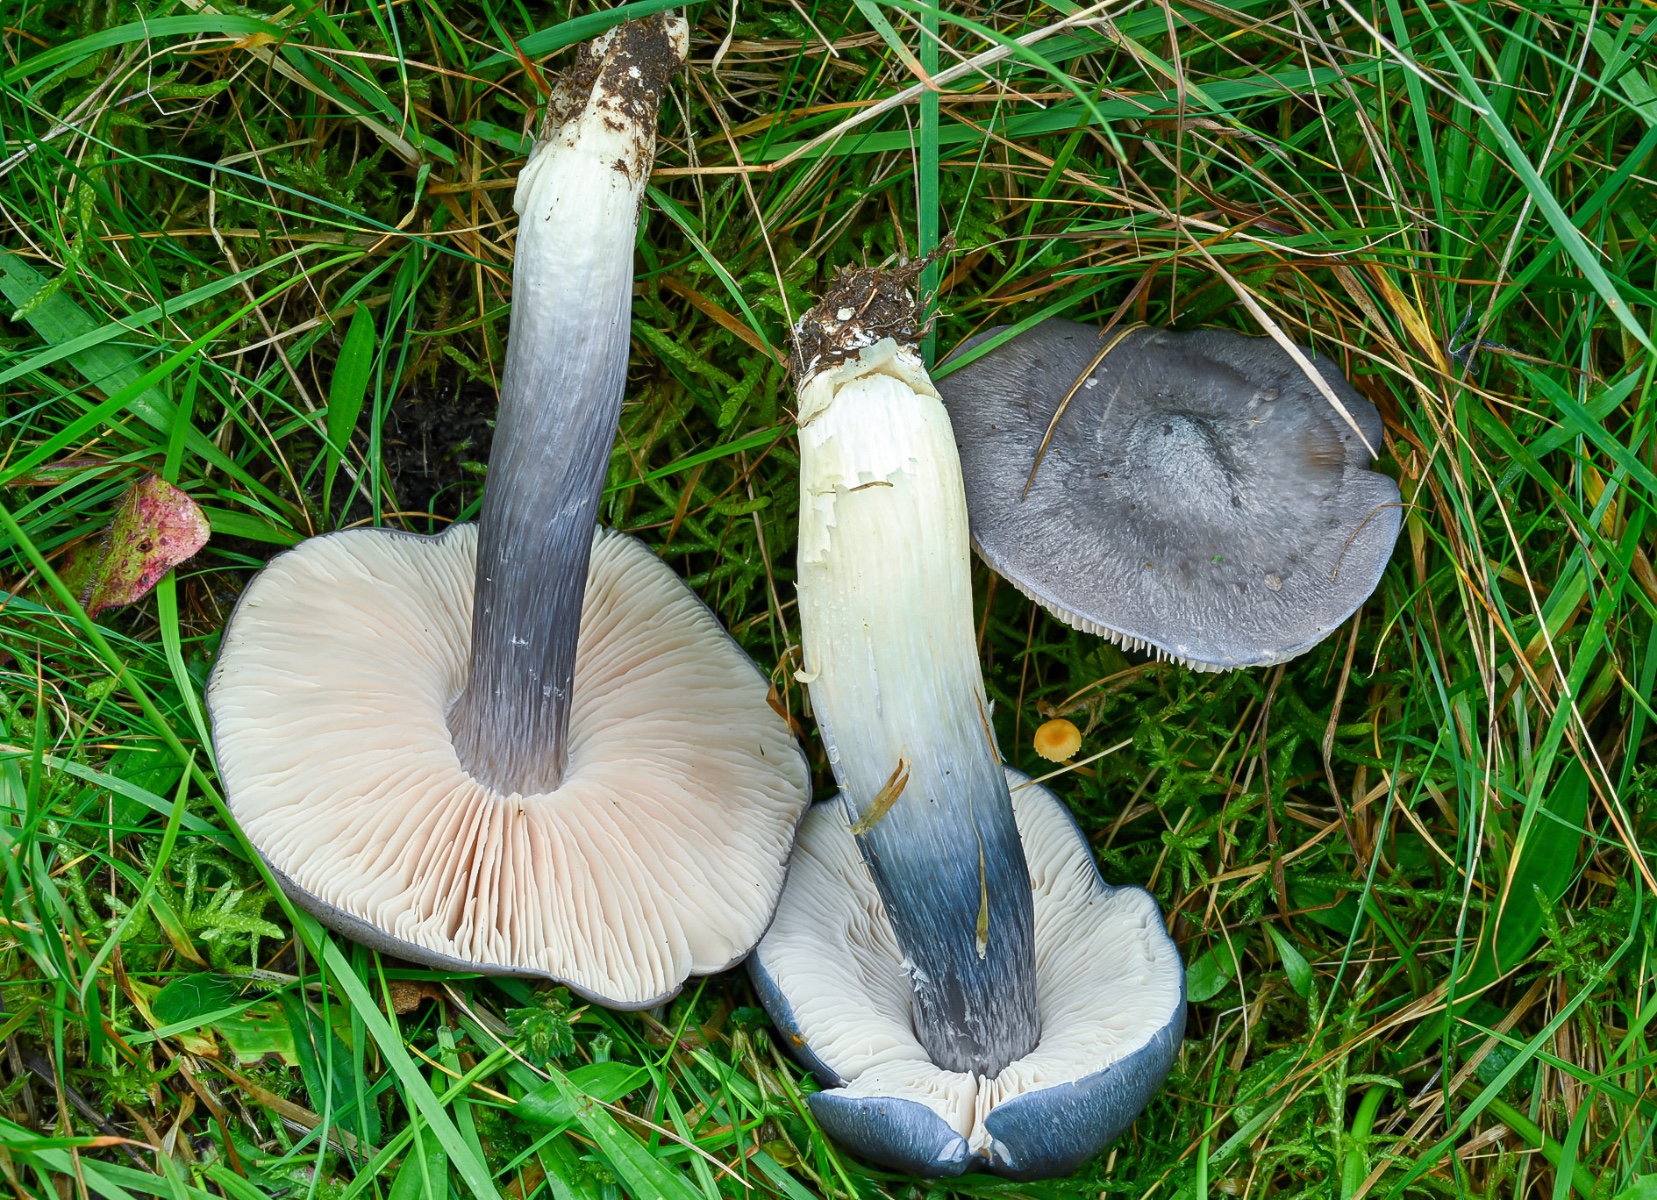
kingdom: Fungi
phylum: Basidiomycota
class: Agaricomycetes
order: Agaricales
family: Entolomataceae
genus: Entoloma
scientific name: Entoloma madidum
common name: indigo-rødblad
